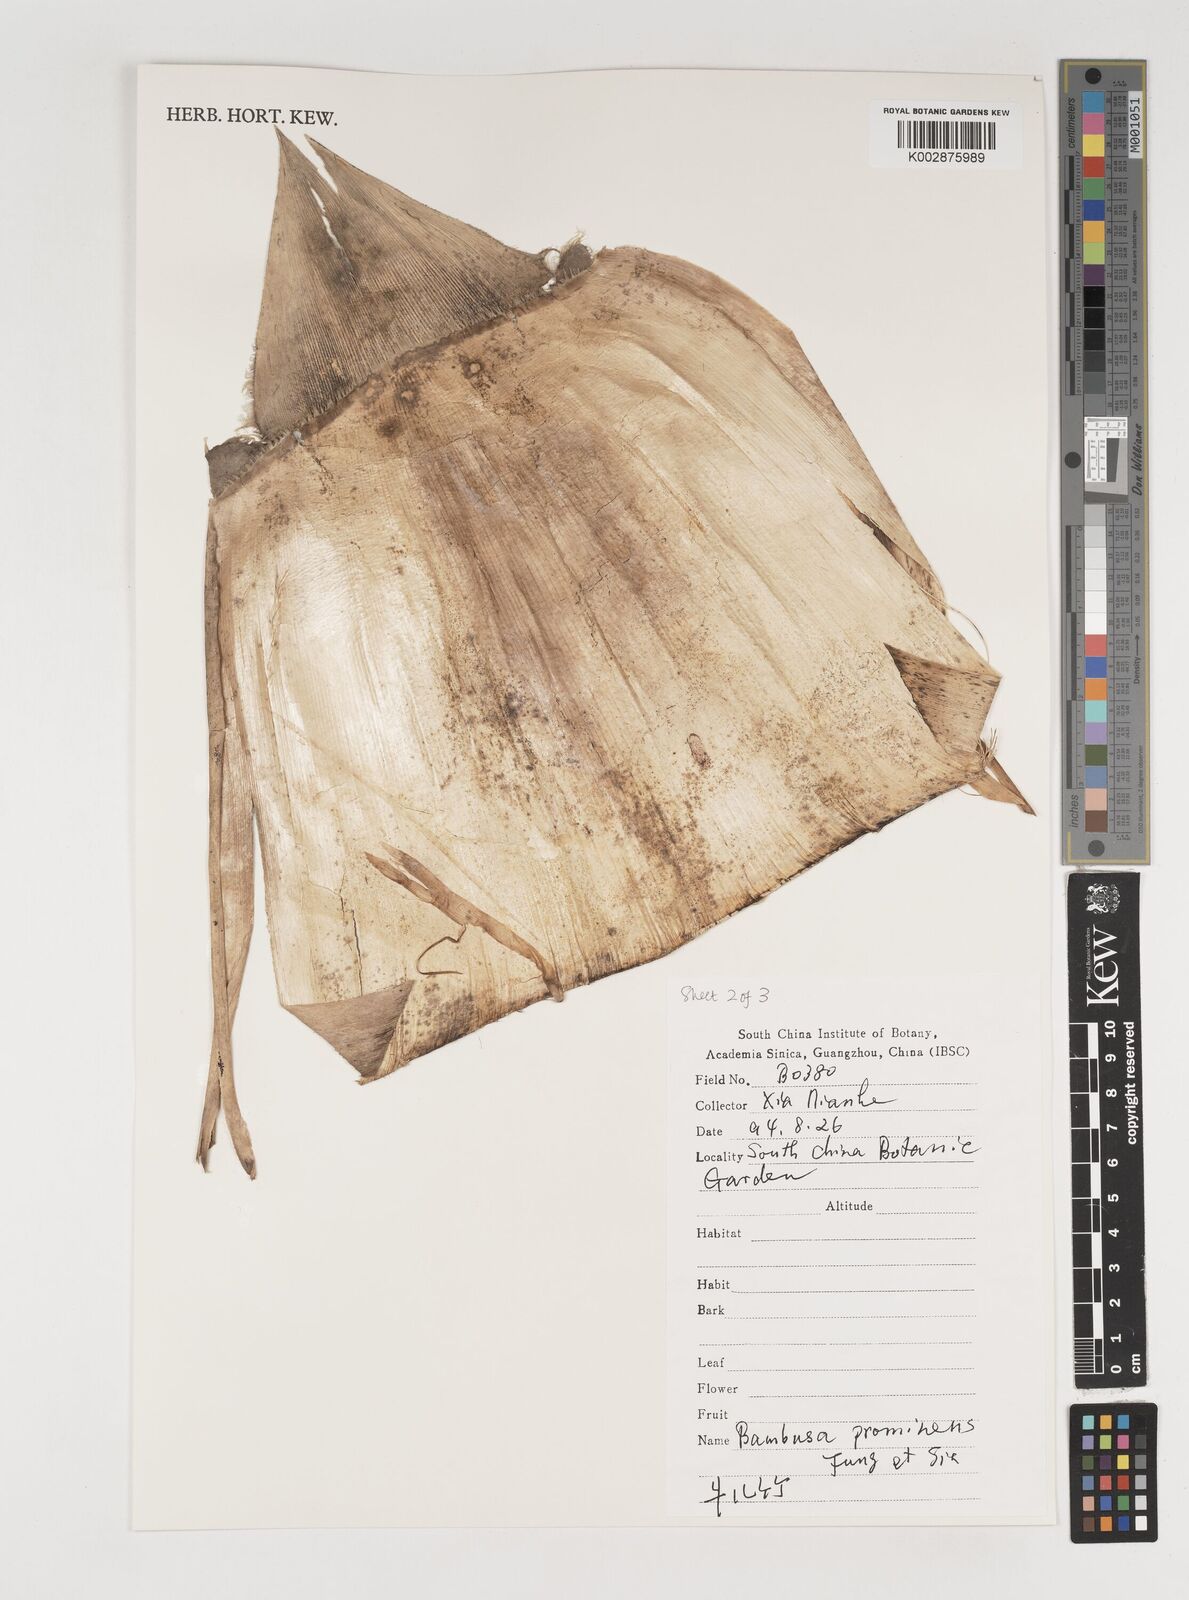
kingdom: Plantae
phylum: Tracheophyta
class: Liliopsida
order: Poales
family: Poaceae
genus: Bambusa
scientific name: Bambusa prominens
